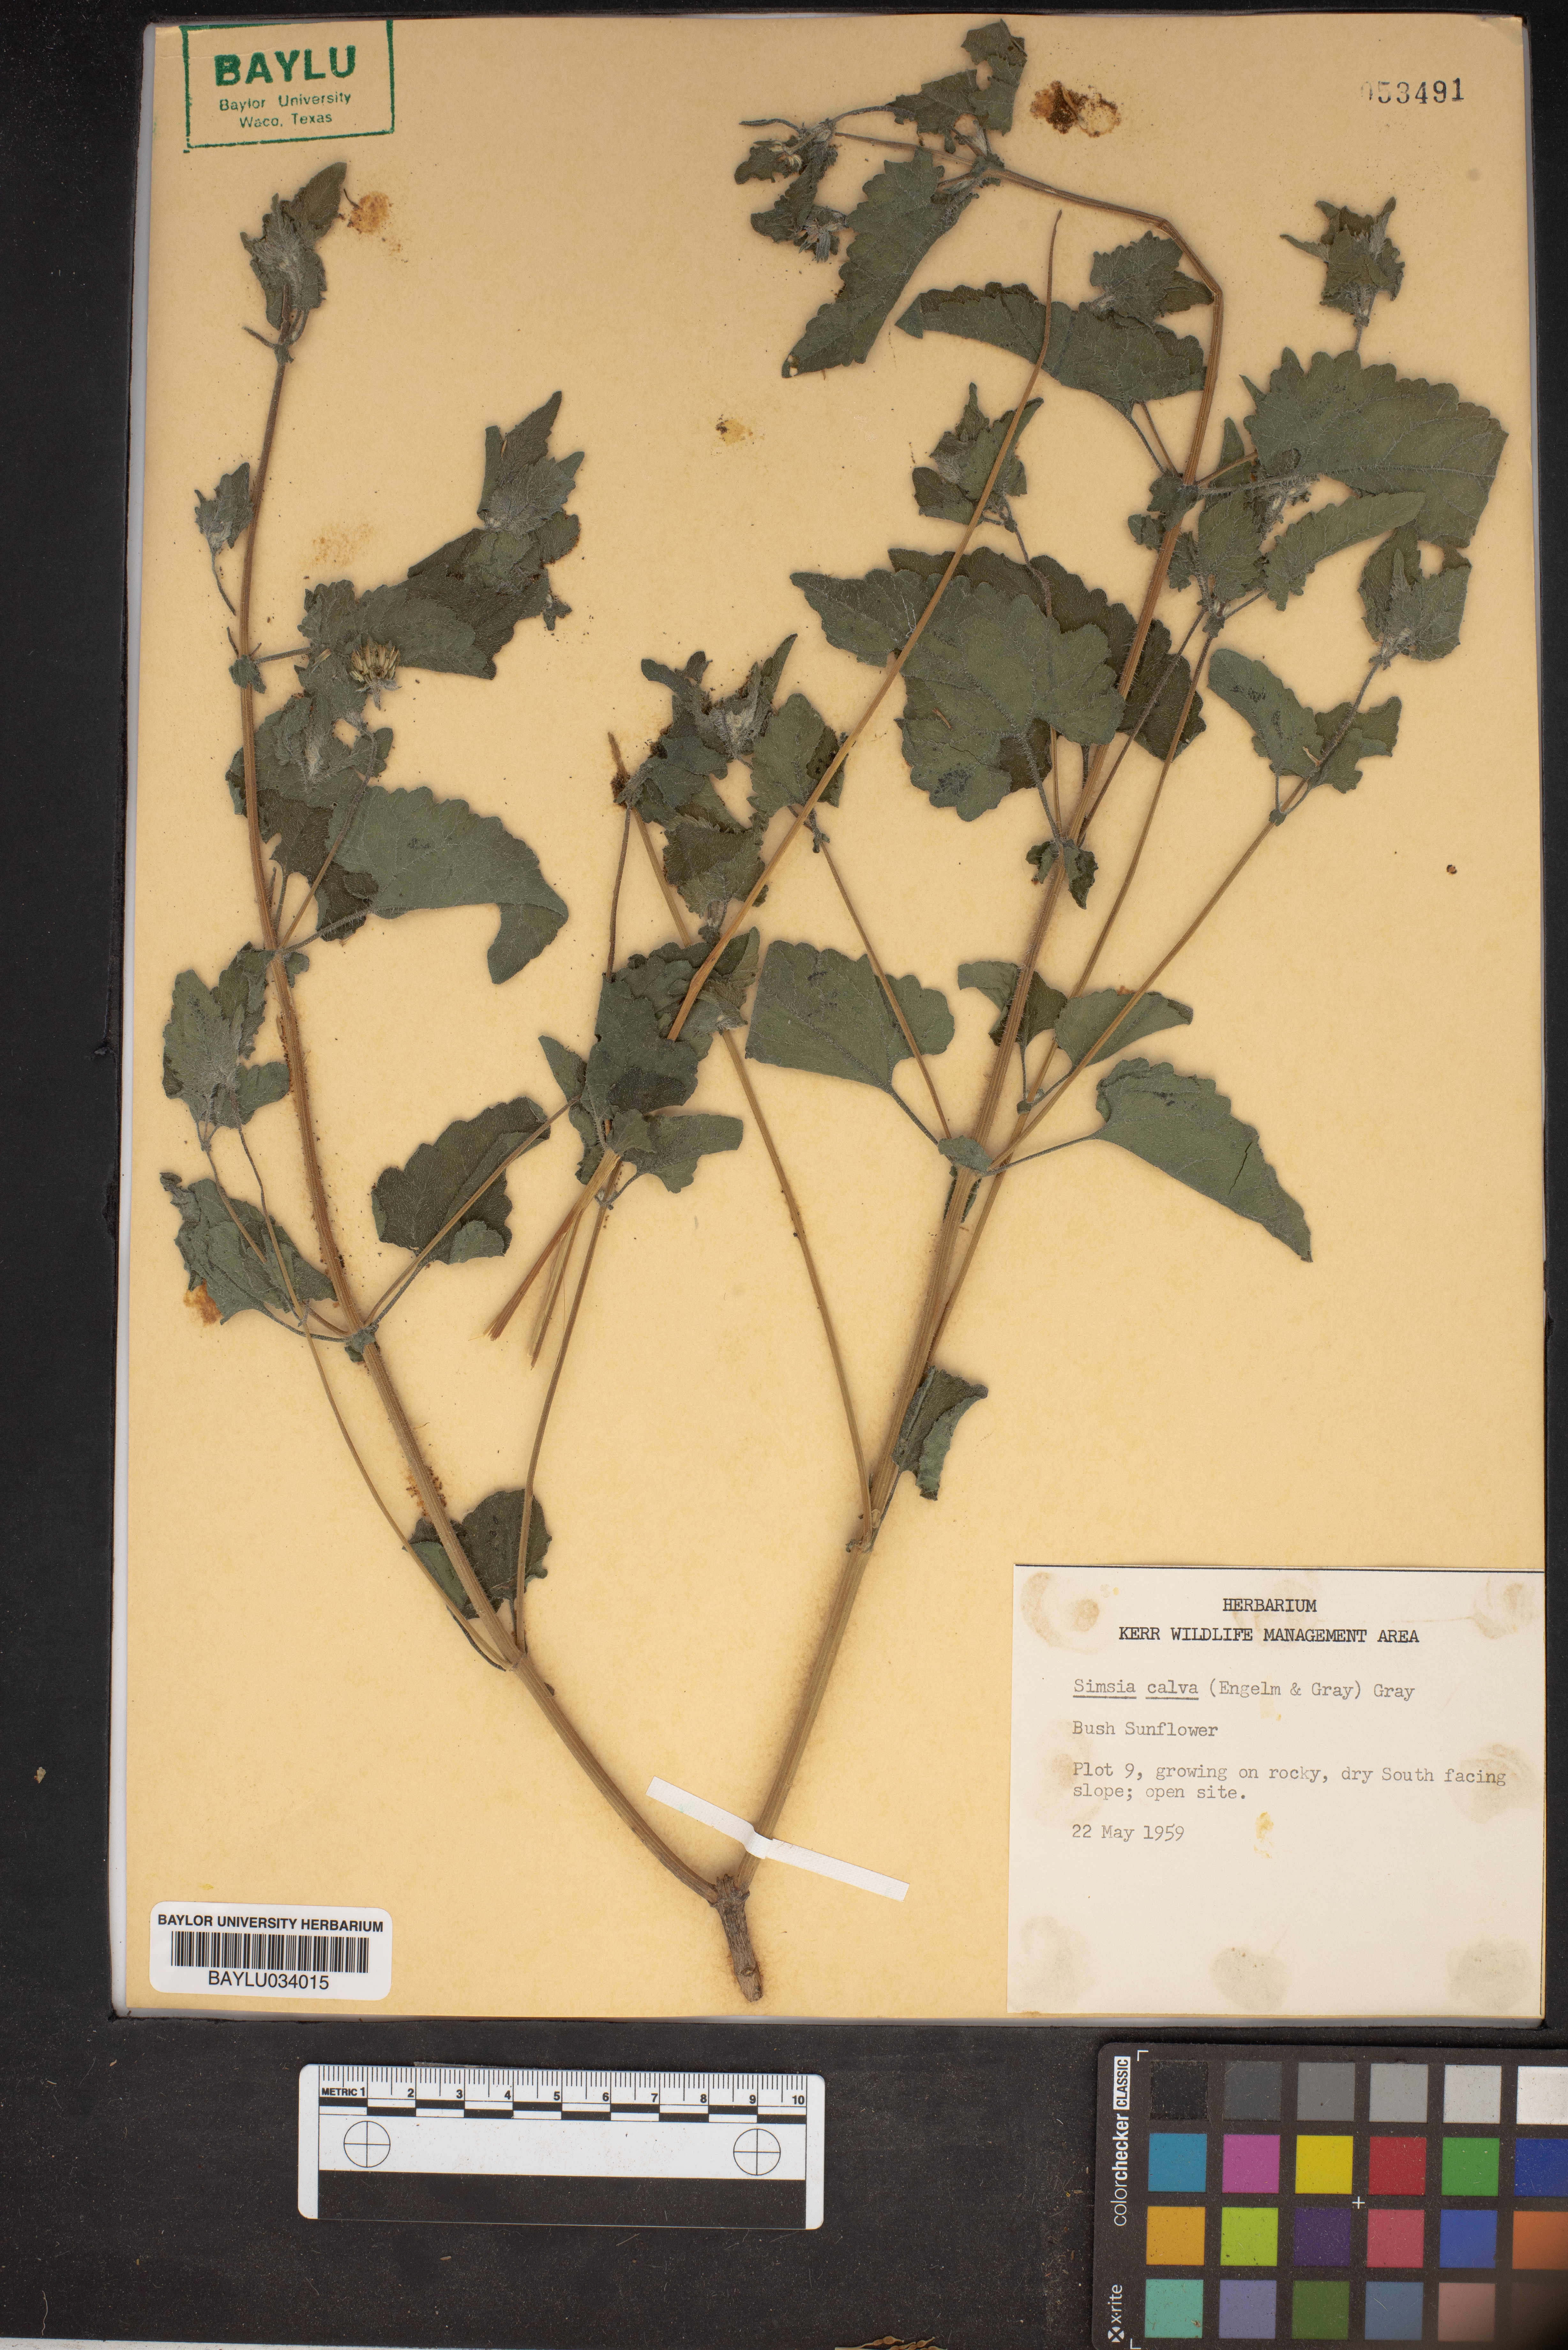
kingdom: Plantae
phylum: Tracheophyta
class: Magnoliopsida
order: Asterales
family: Asteraceae
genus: Simsia
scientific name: Simsia calva
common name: Awnless bush-sunflower
